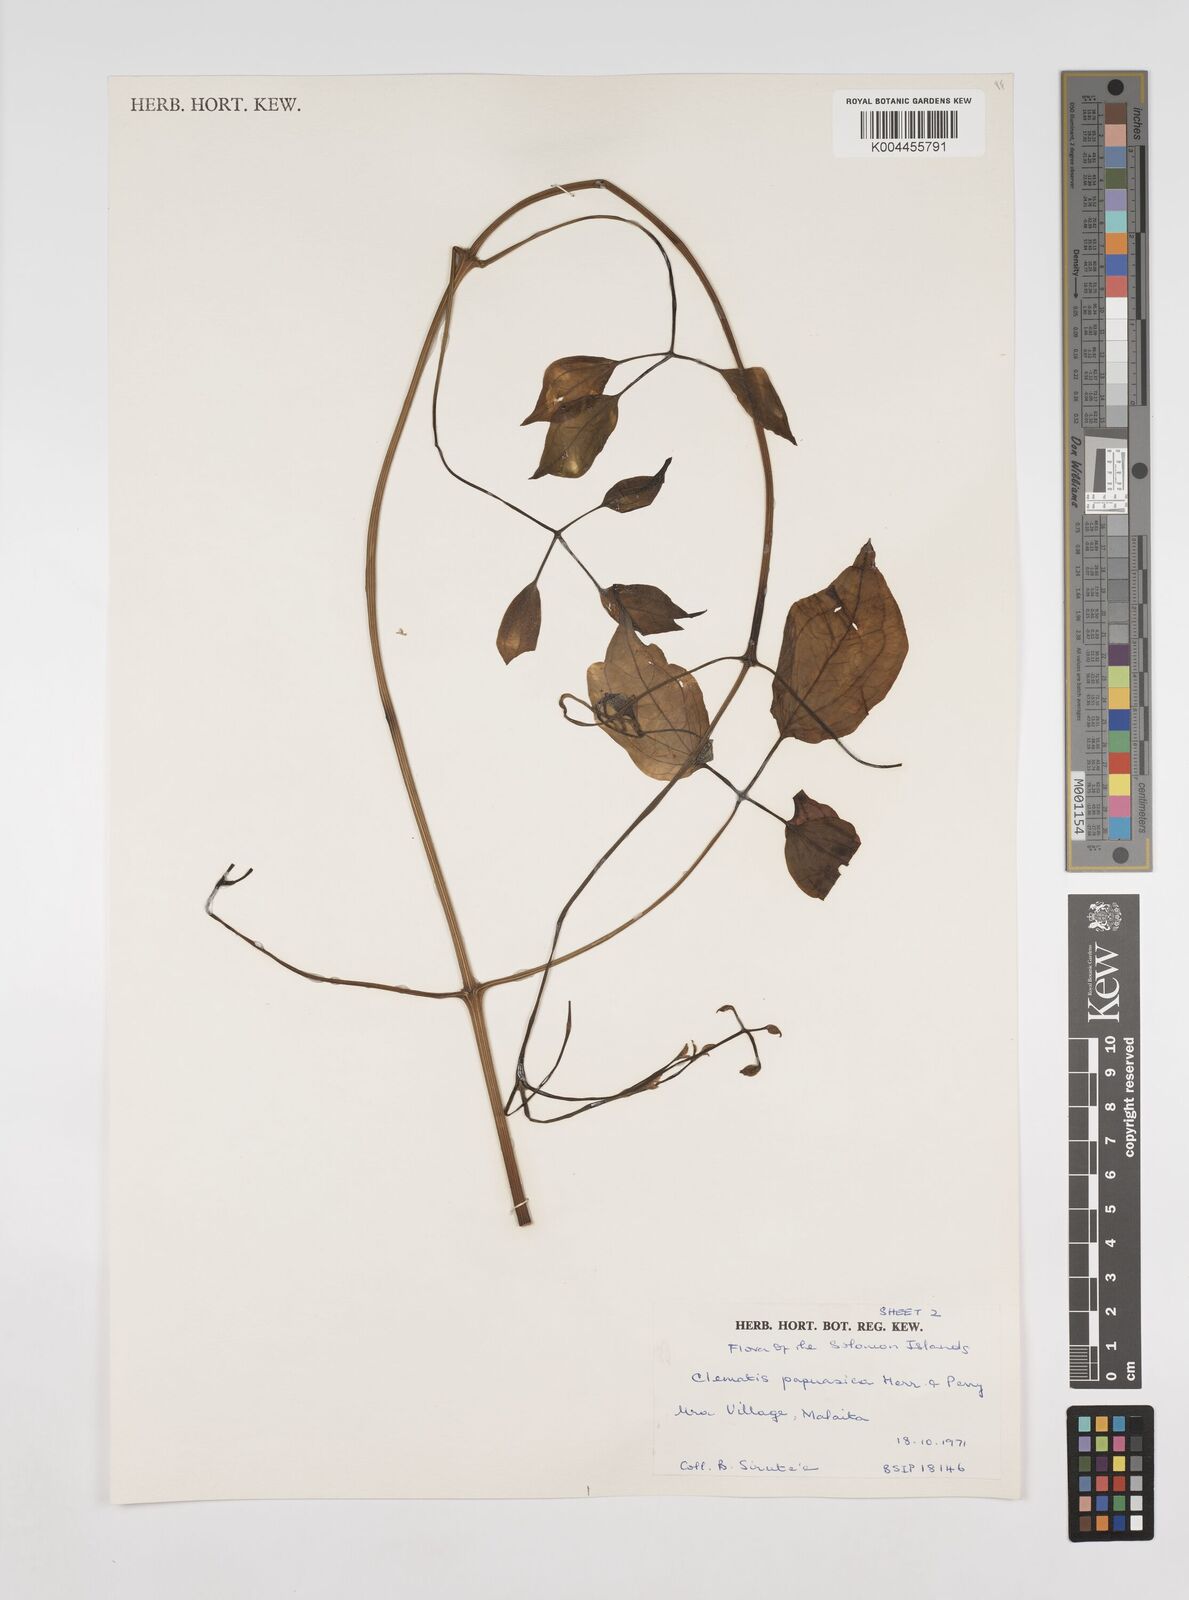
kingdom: Plantae
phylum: Tracheophyta
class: Magnoliopsida
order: Ranunculales
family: Ranunculaceae
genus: Clematis
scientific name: Clematis papuasica
